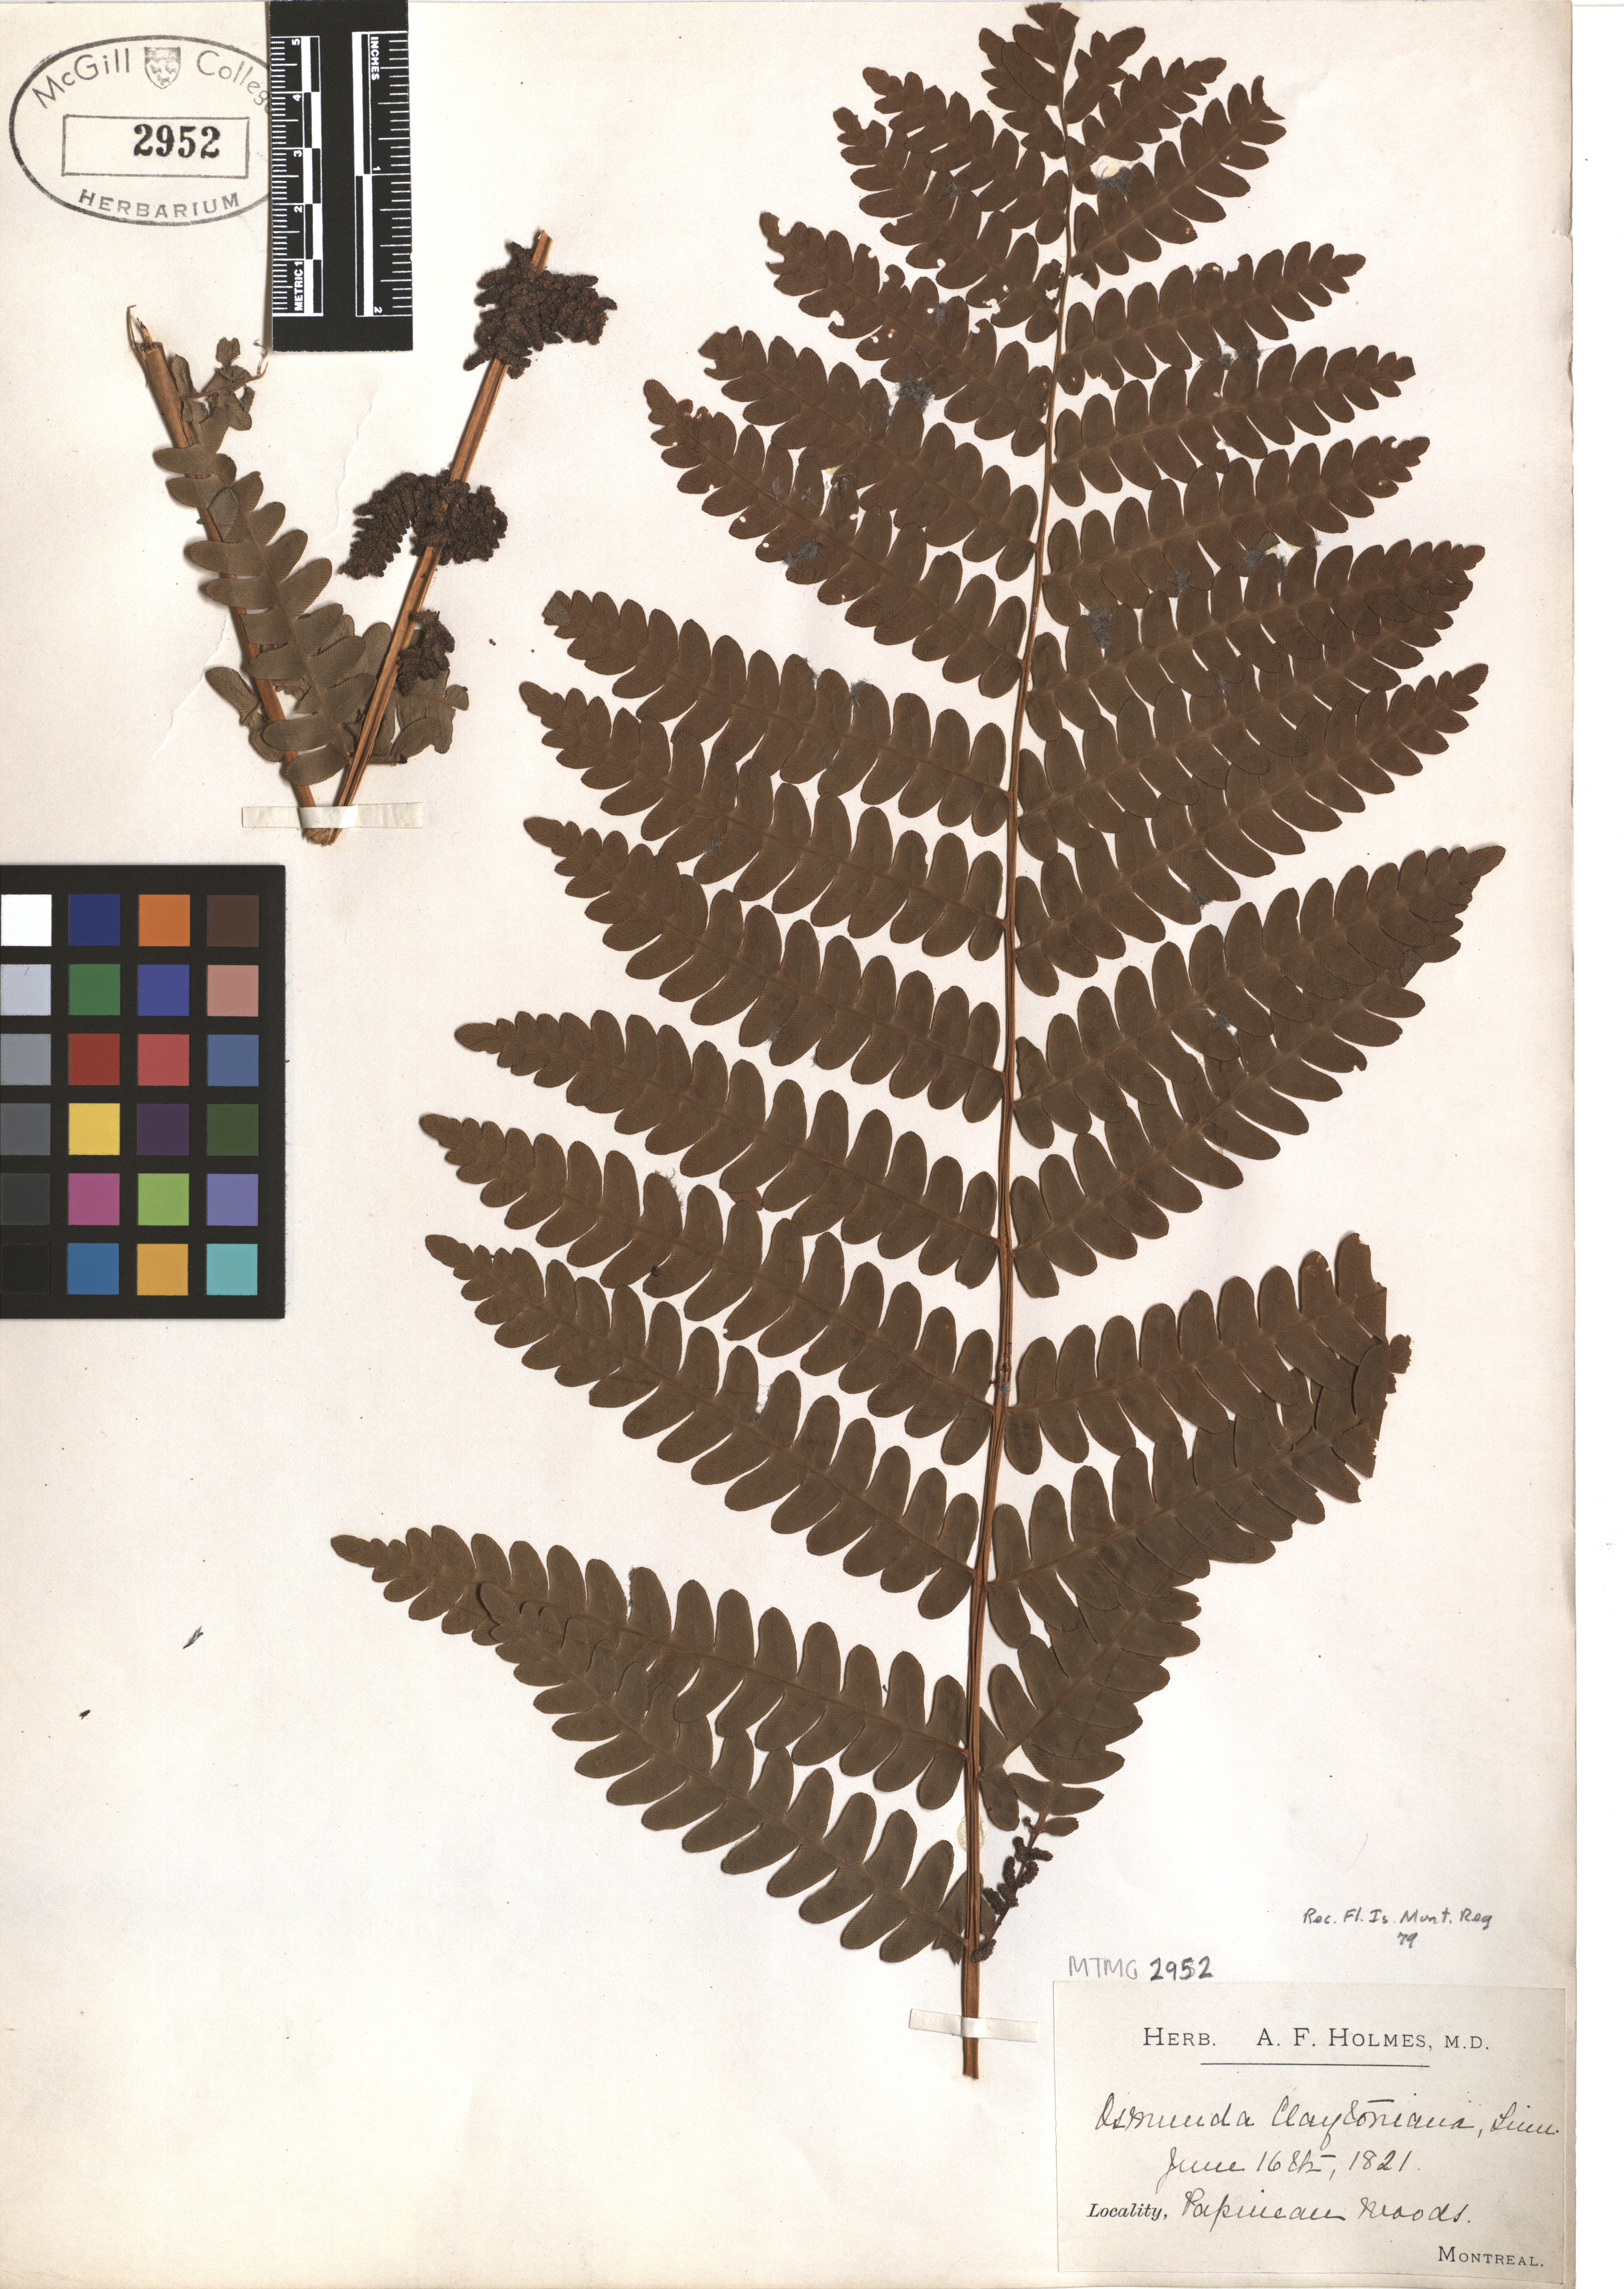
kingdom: Plantae
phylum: Tracheophyta
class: Polypodiopsida
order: Osmundales
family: Osmundaceae
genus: Claytosmunda
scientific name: Claytosmunda claytoniana
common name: Clayton's fern
